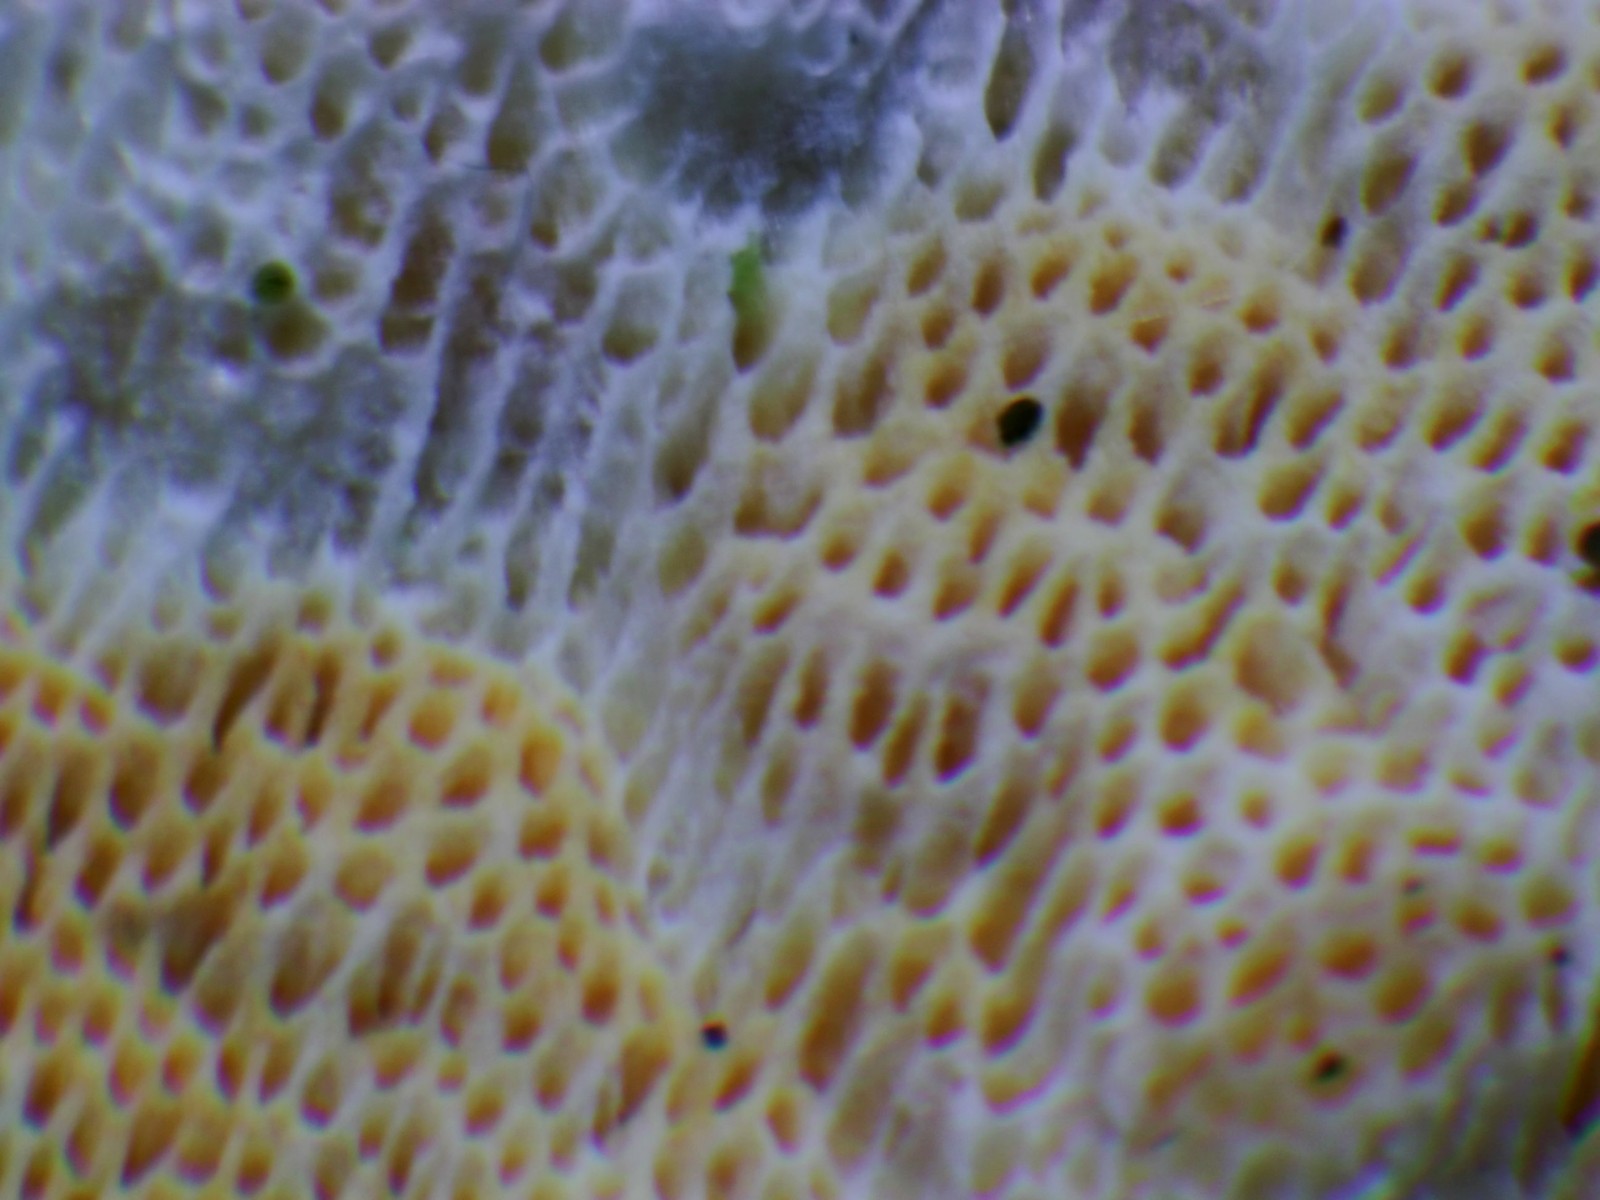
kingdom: Fungi
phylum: Basidiomycota
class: Agaricomycetes
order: Polyporales
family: Incrustoporiaceae
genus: Skeletocutis
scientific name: Skeletocutis amorpha
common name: orange krystalporesvamp
